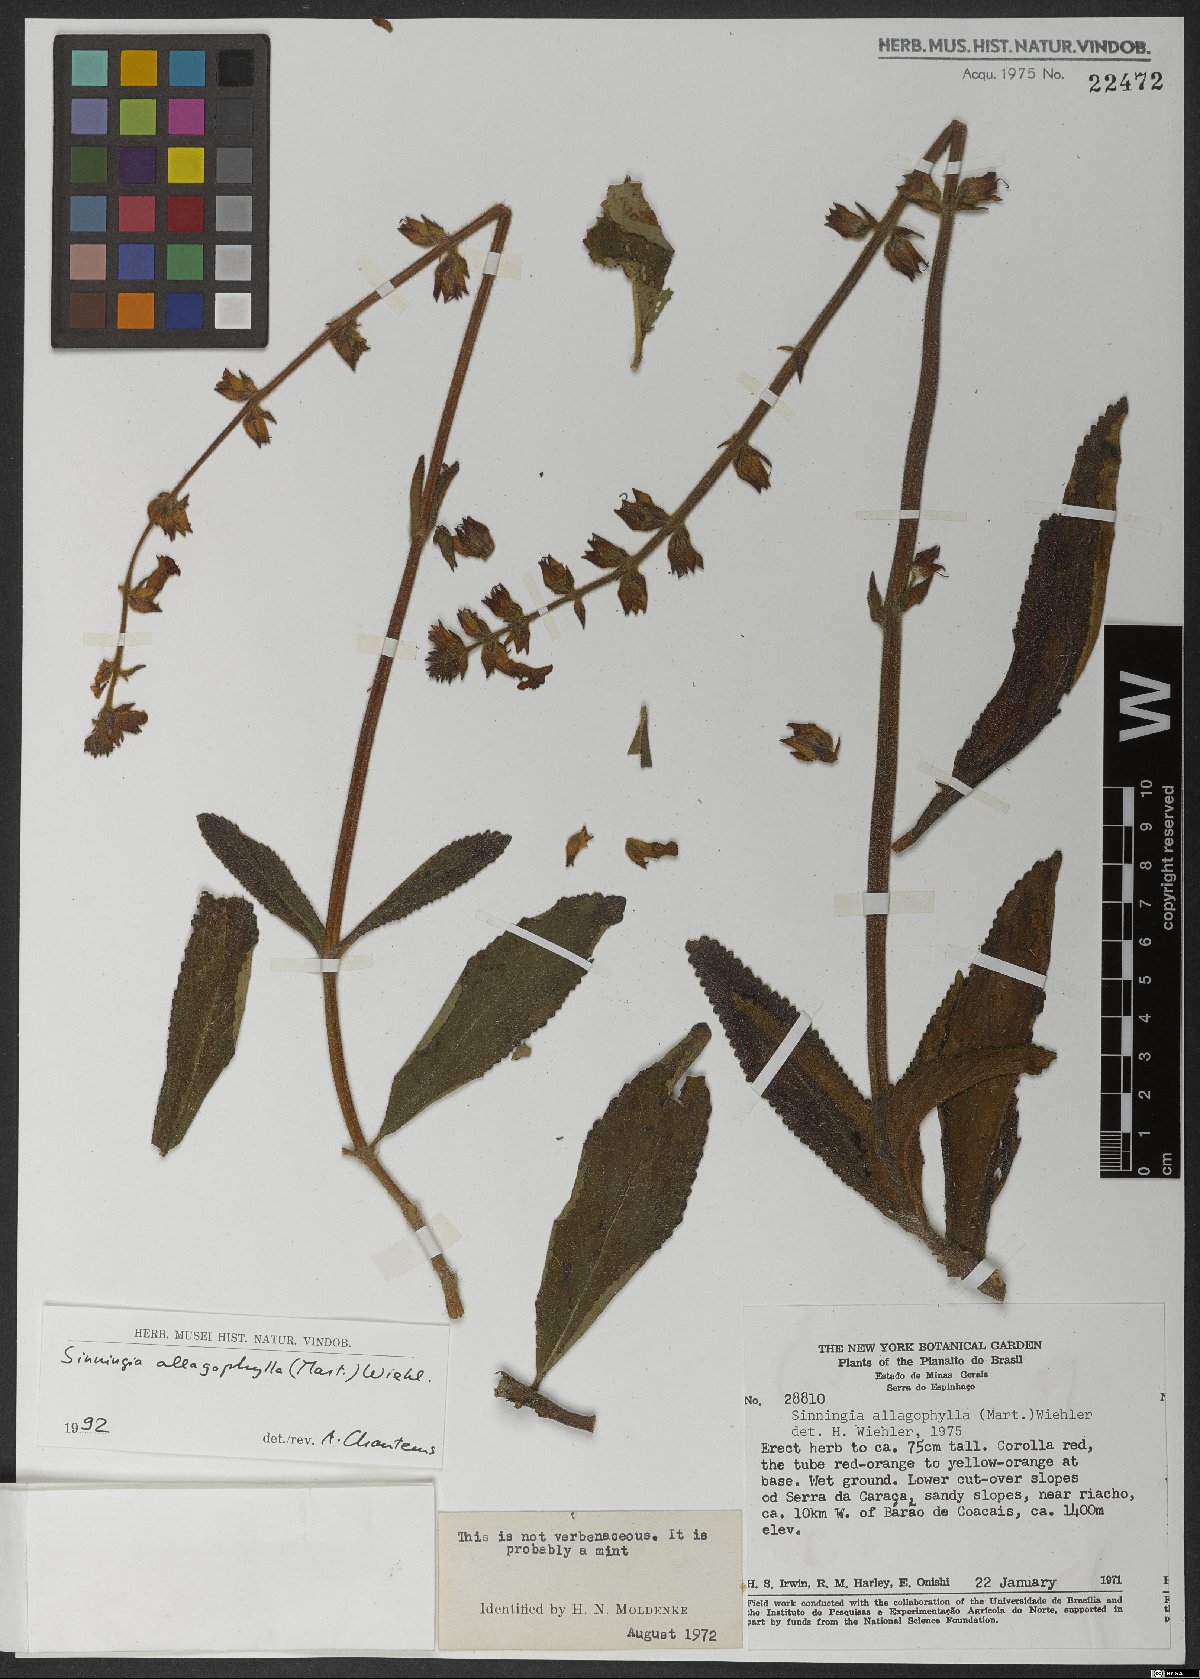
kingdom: Plantae
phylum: Tracheophyta
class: Magnoliopsida
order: Lamiales
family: Gesneriaceae
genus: Sinningia
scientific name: Sinningia allagophylla
